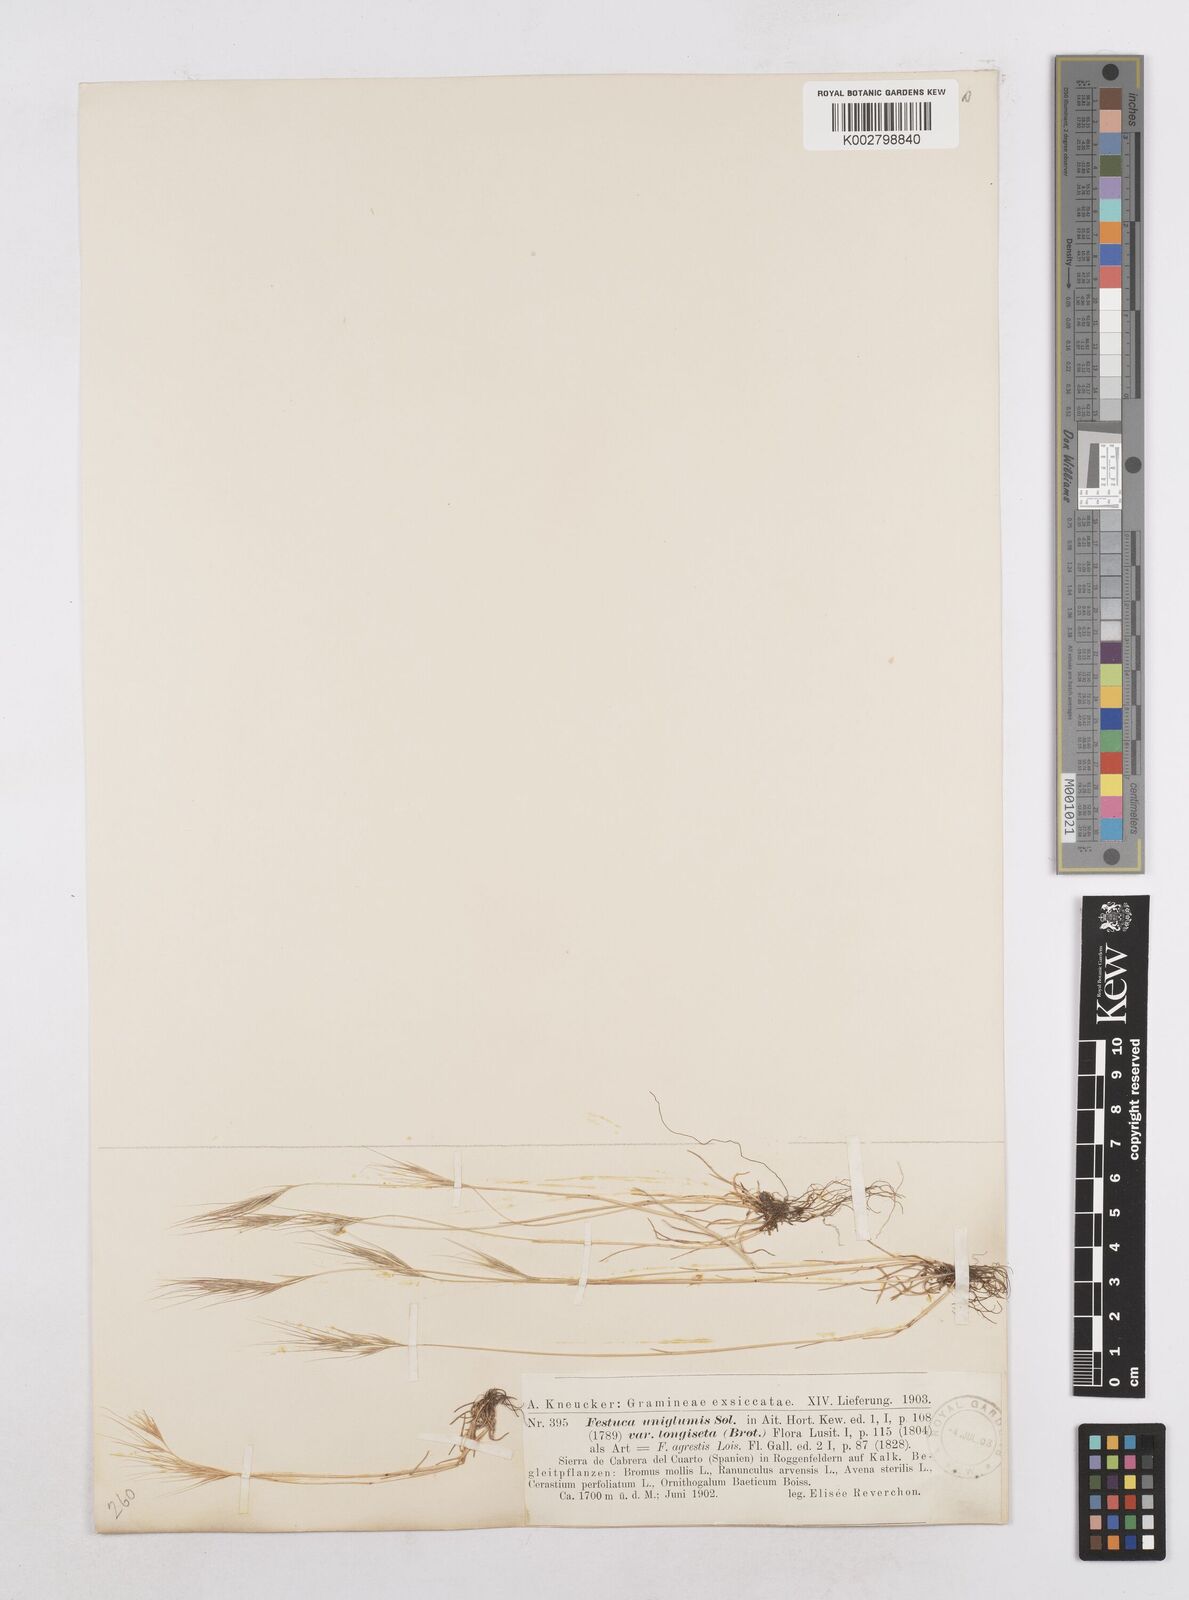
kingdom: Plantae
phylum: Tracheophyta
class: Liliopsida
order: Poales
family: Poaceae
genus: Festuca
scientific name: Festuca membranacea
